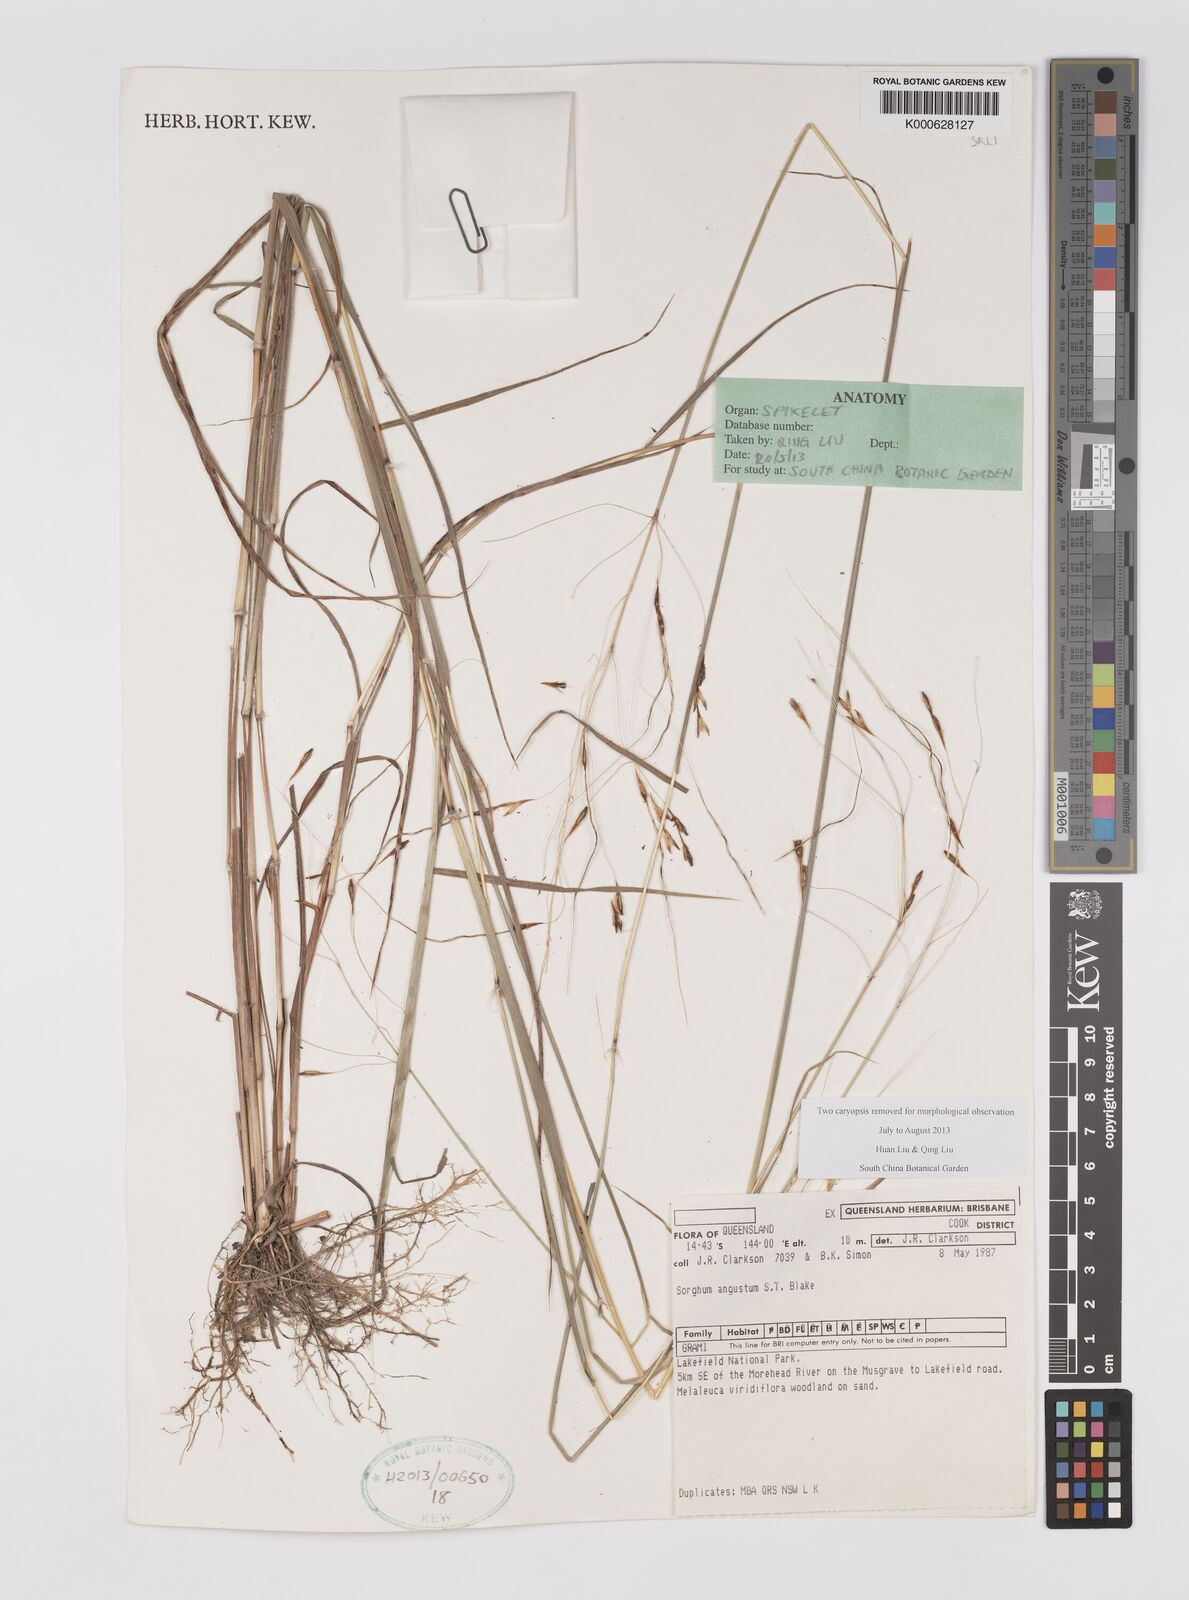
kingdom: Plantae
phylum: Tracheophyta
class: Liliopsida
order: Poales
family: Poaceae
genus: Sarga
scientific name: Sarga angusta
